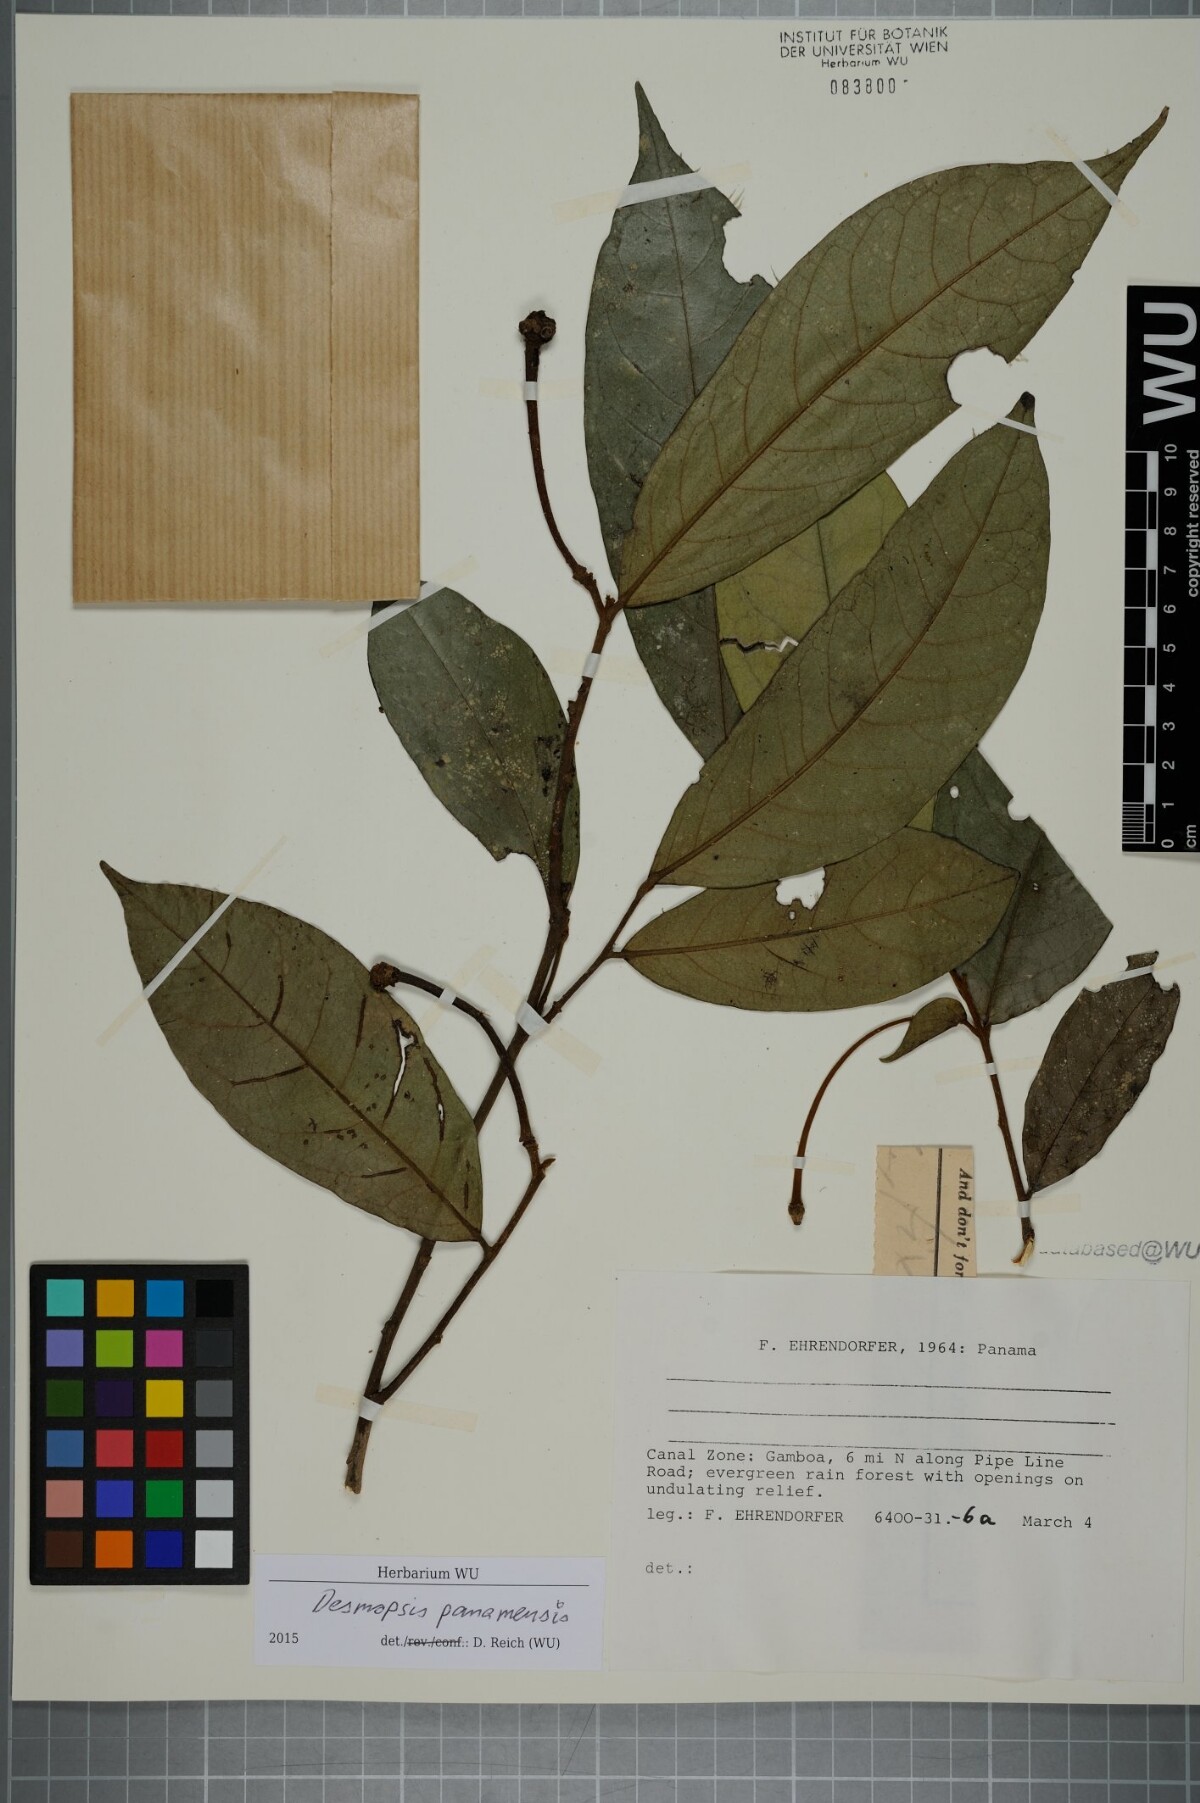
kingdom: Plantae
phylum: Tracheophyta
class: Magnoliopsida
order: Magnoliales
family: Annonaceae
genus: Desmopsis
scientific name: Desmopsis panamensis
